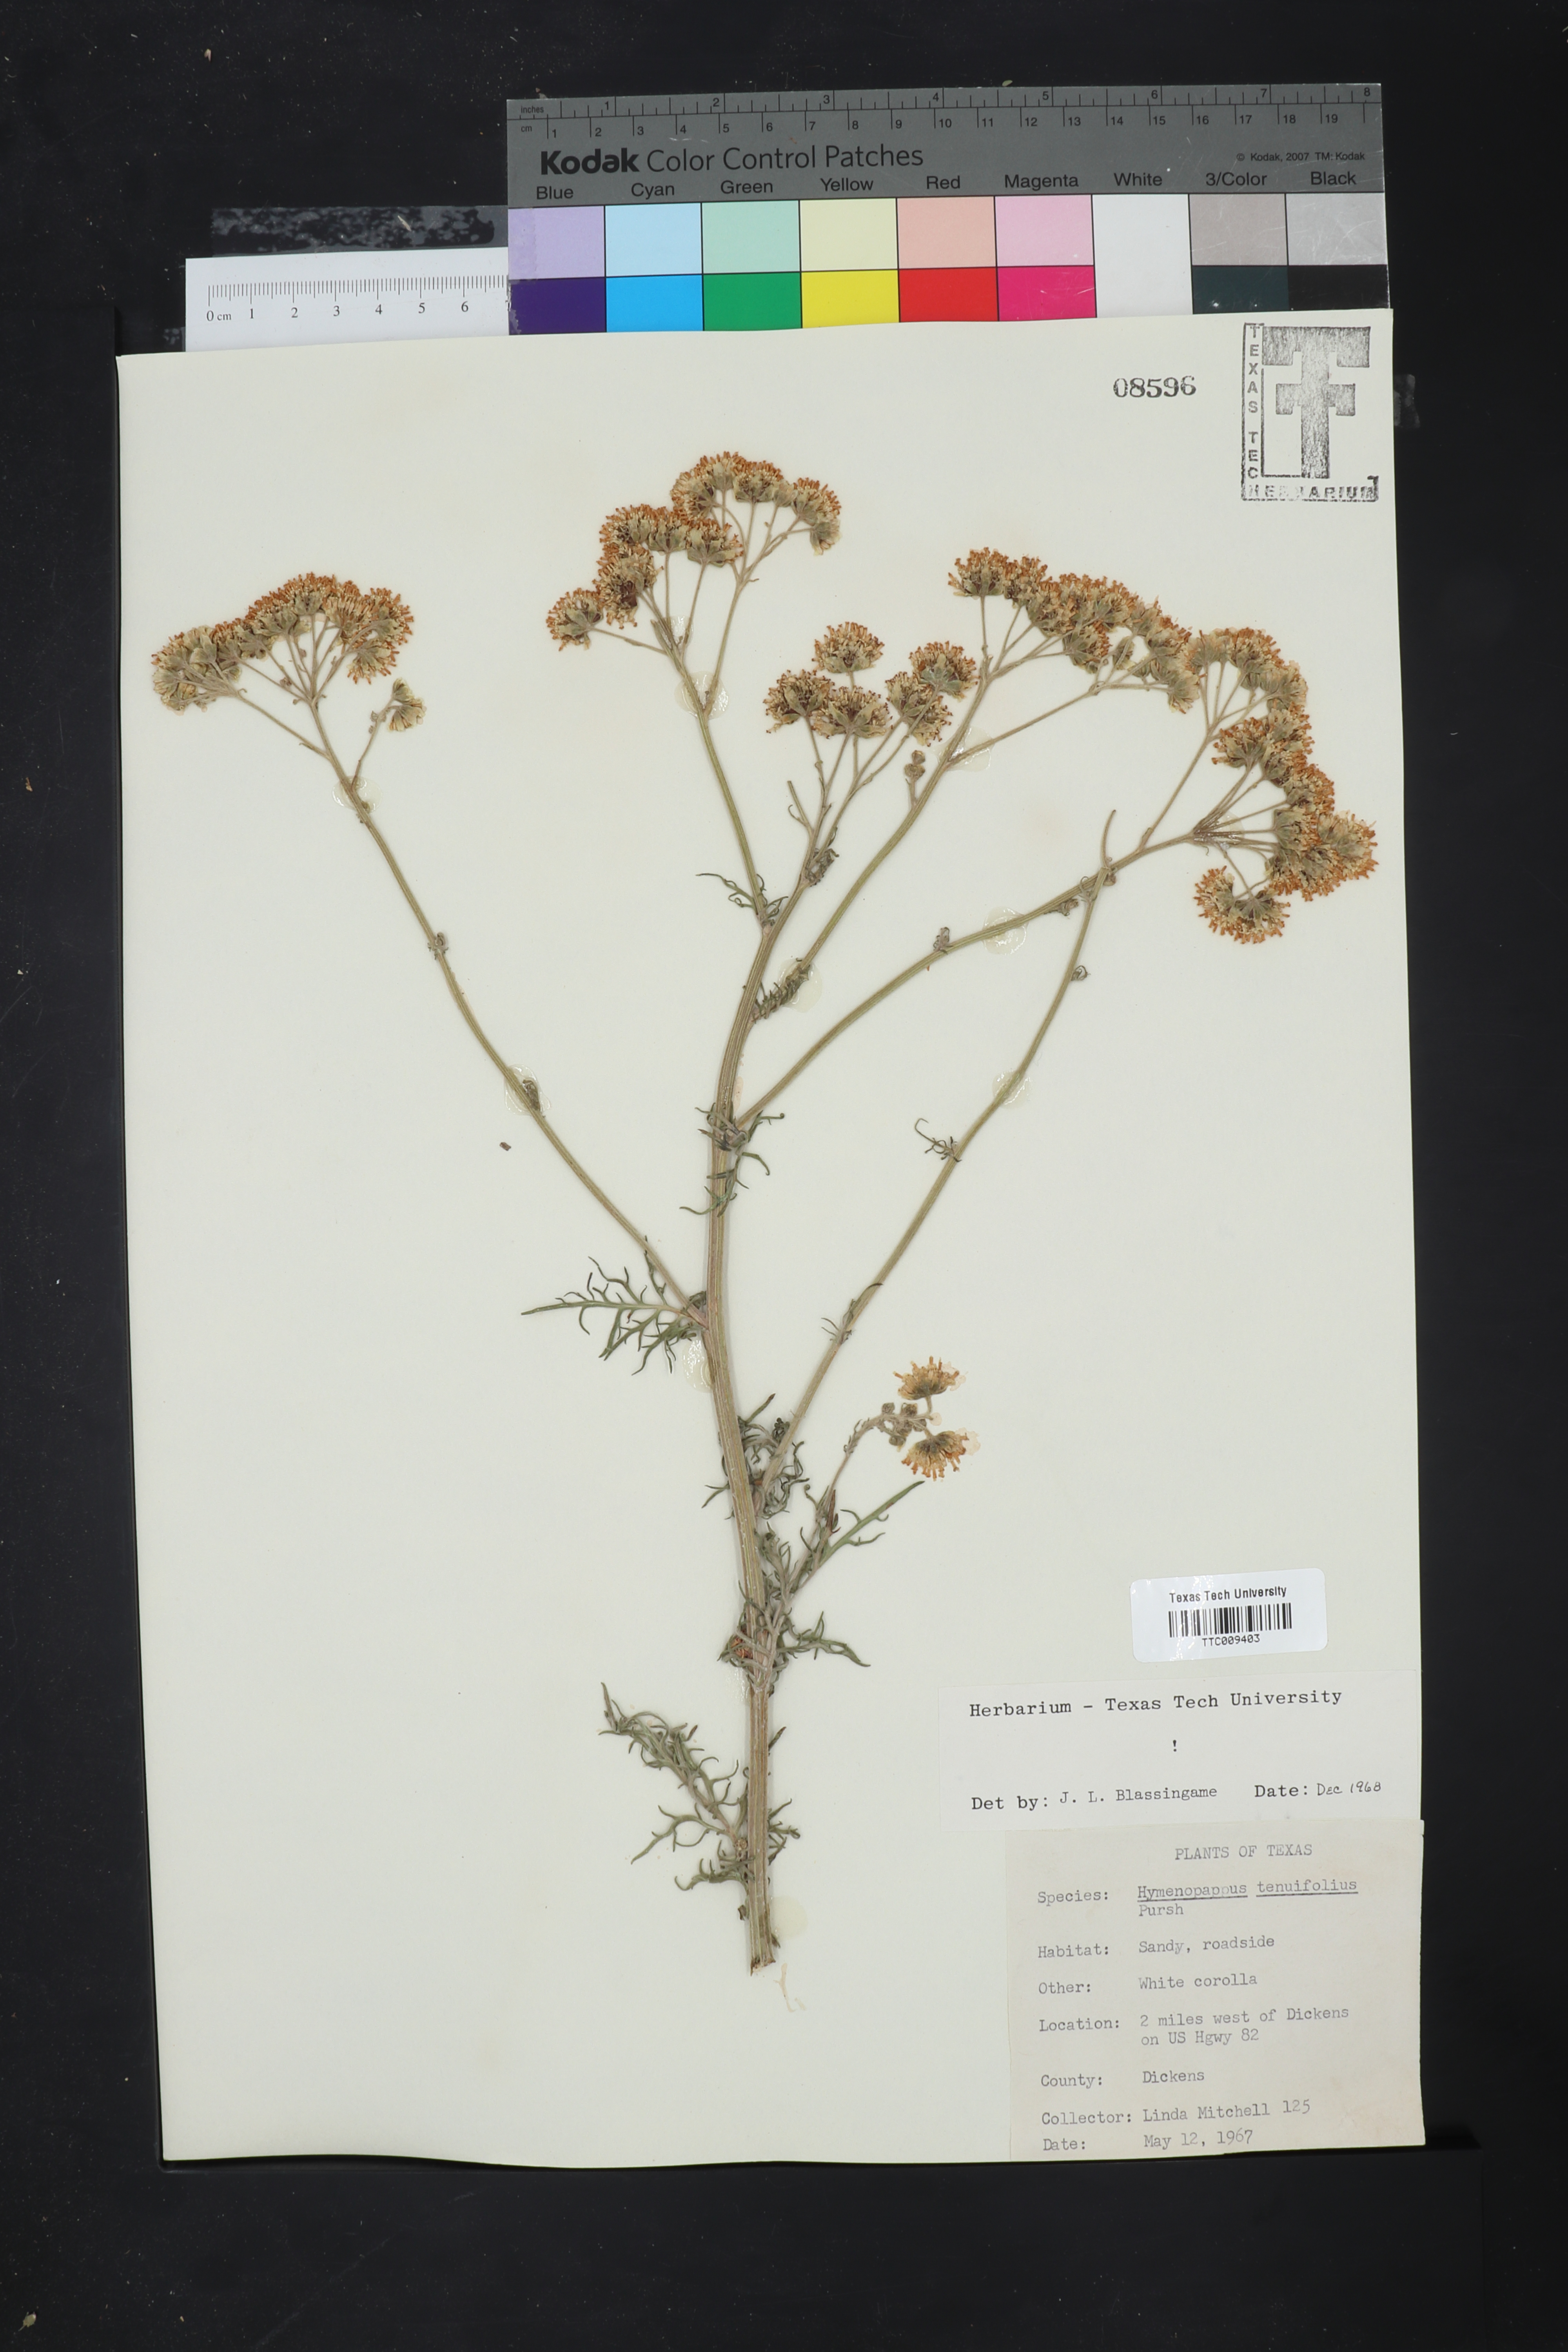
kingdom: Plantae
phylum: Tracheophyta
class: Magnoliopsida
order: Asterales
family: Asteraceae
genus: Hymenopappus
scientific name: Hymenopappus tenuifolius
